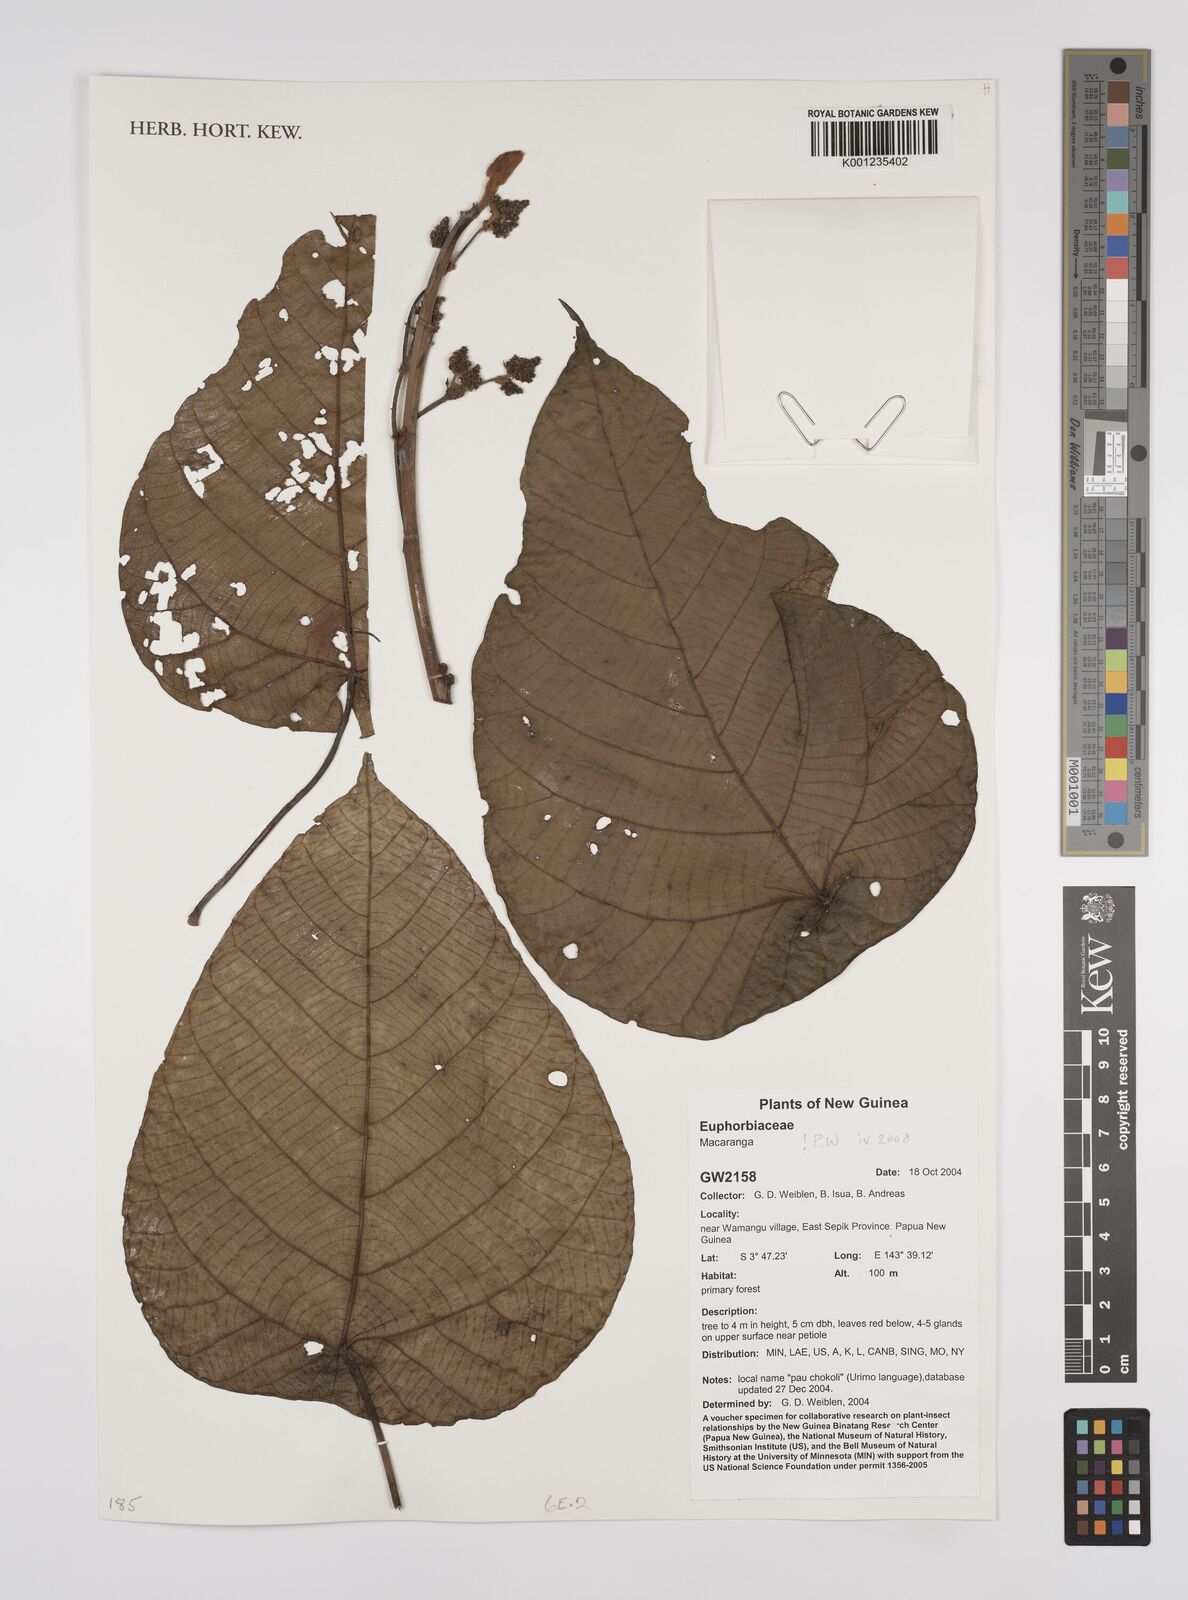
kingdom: Plantae
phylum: Tracheophyta
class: Magnoliopsida
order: Malpighiales
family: Euphorbiaceae
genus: Macaranga
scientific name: Macaranga
